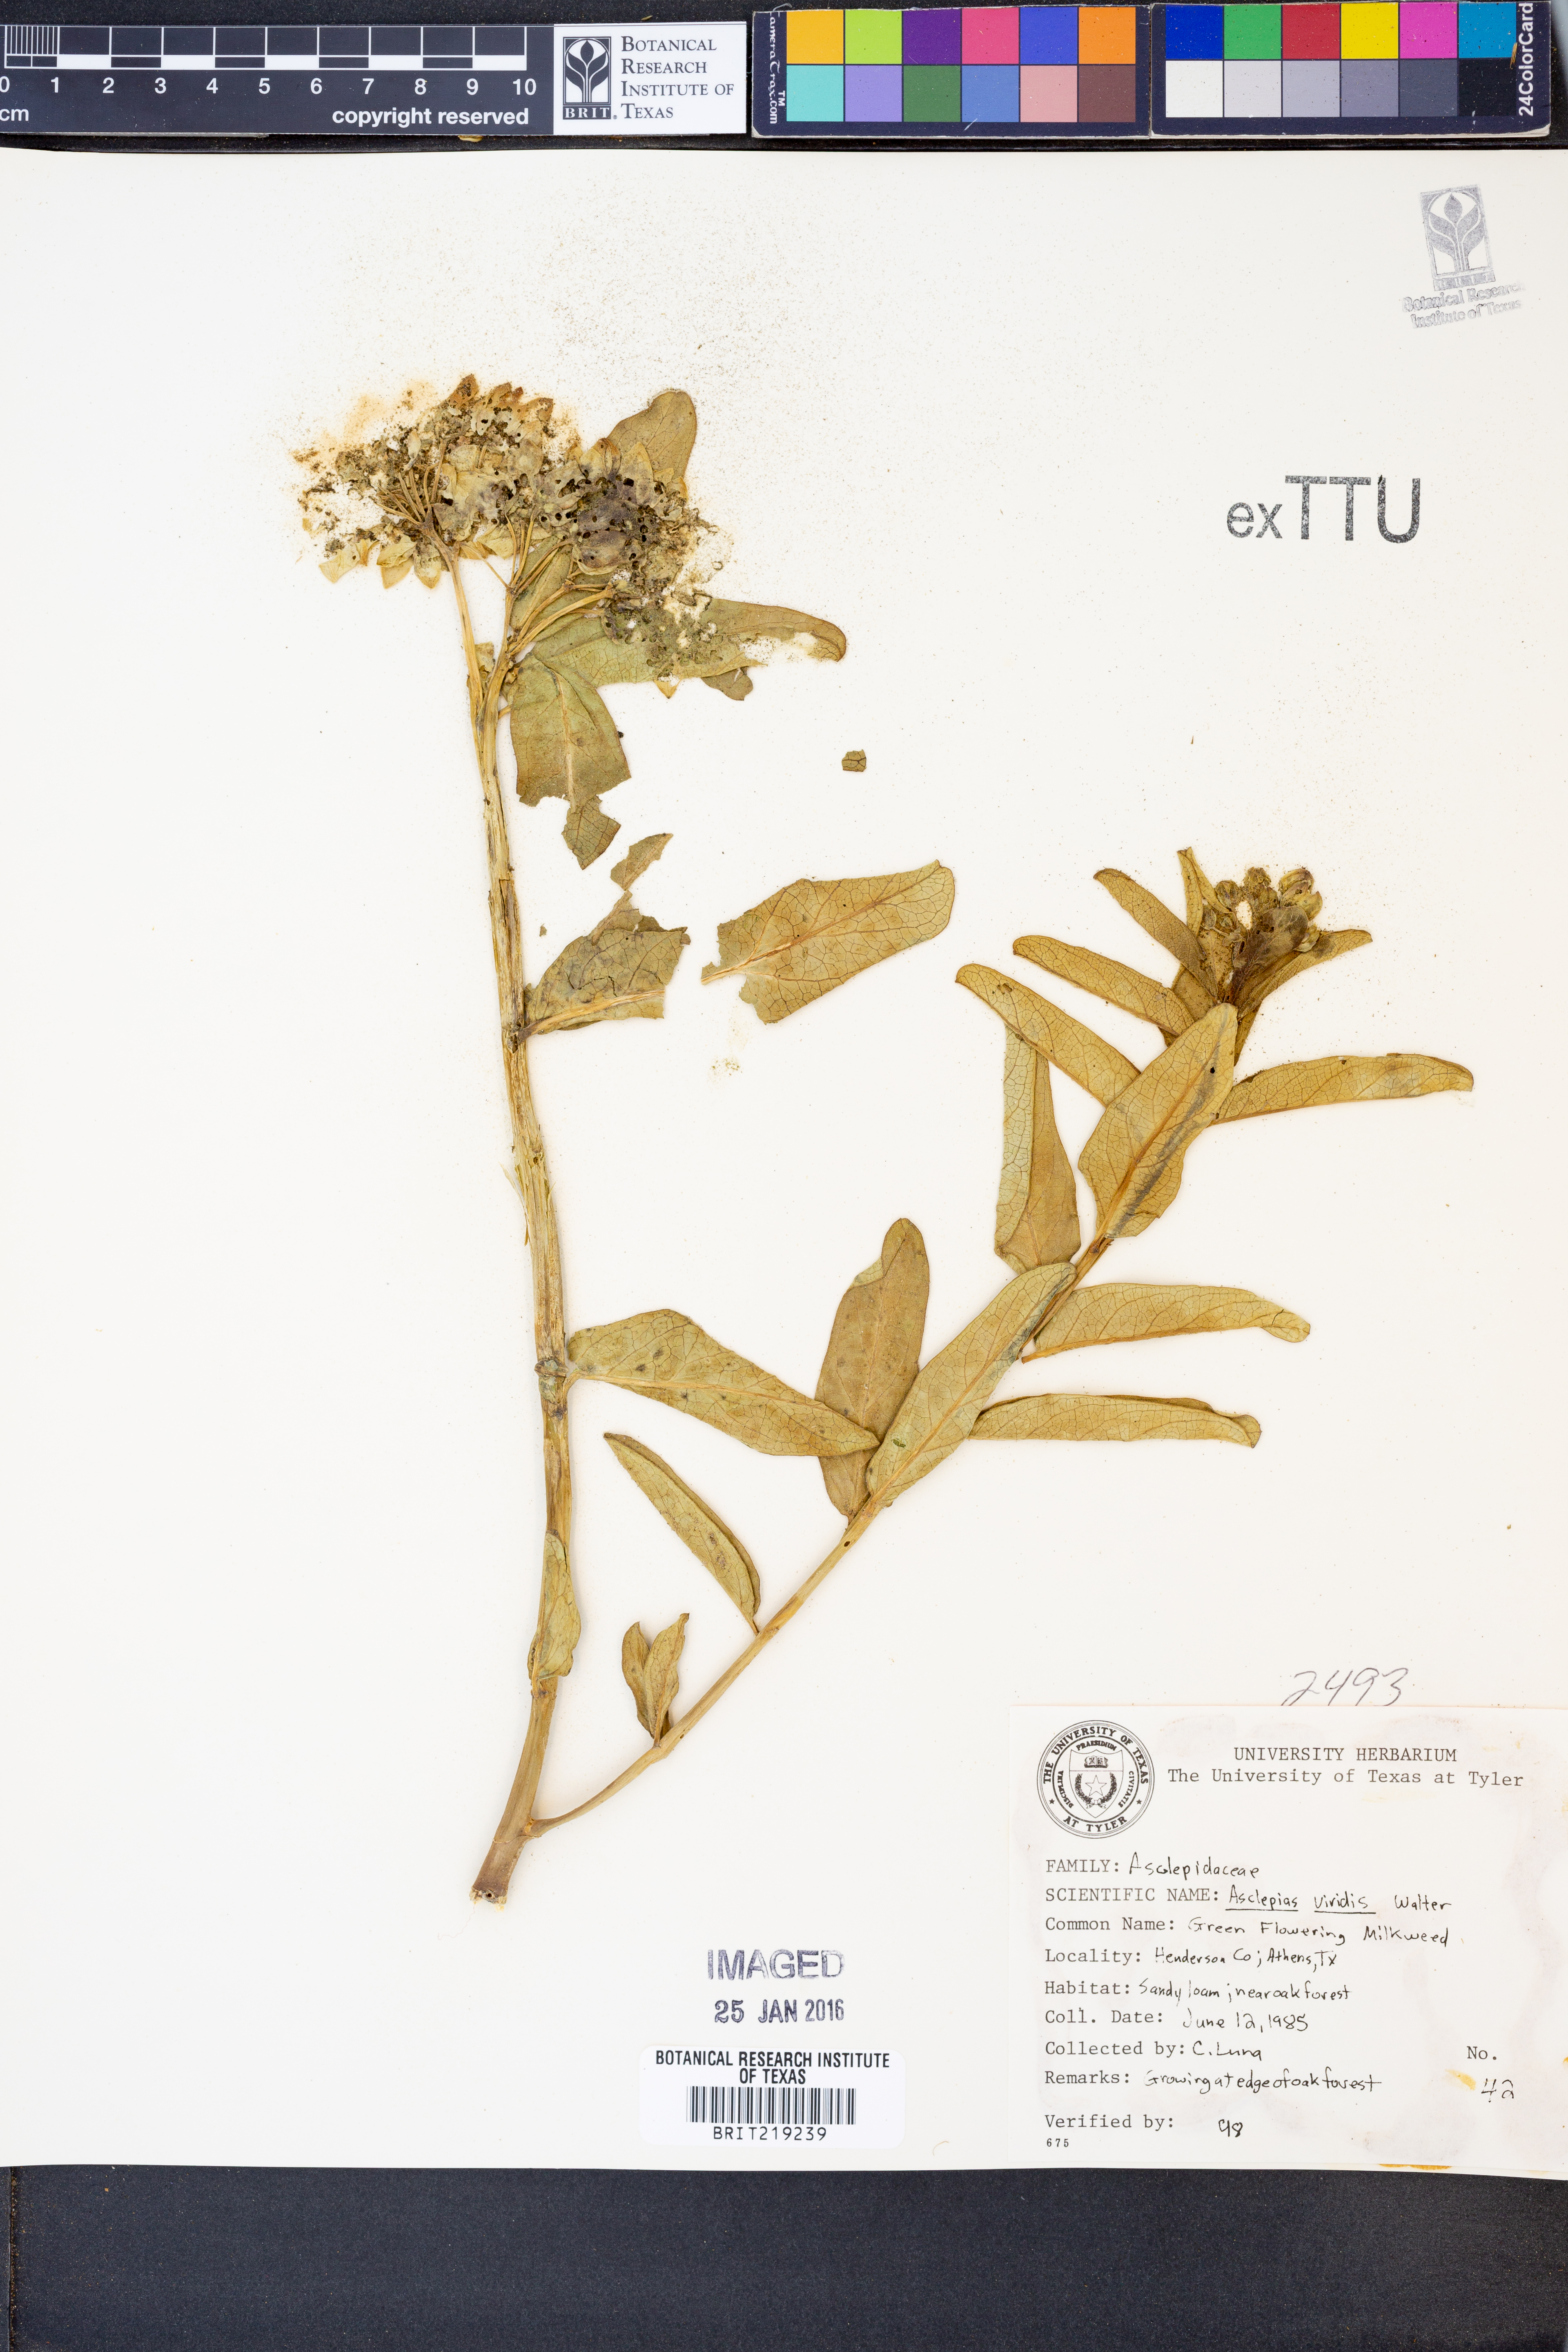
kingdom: Plantae
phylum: Tracheophyta
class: Magnoliopsida
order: Gentianales
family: Apocynaceae
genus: Asclepias
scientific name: Asclepias viridis
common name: Antelope-horns
